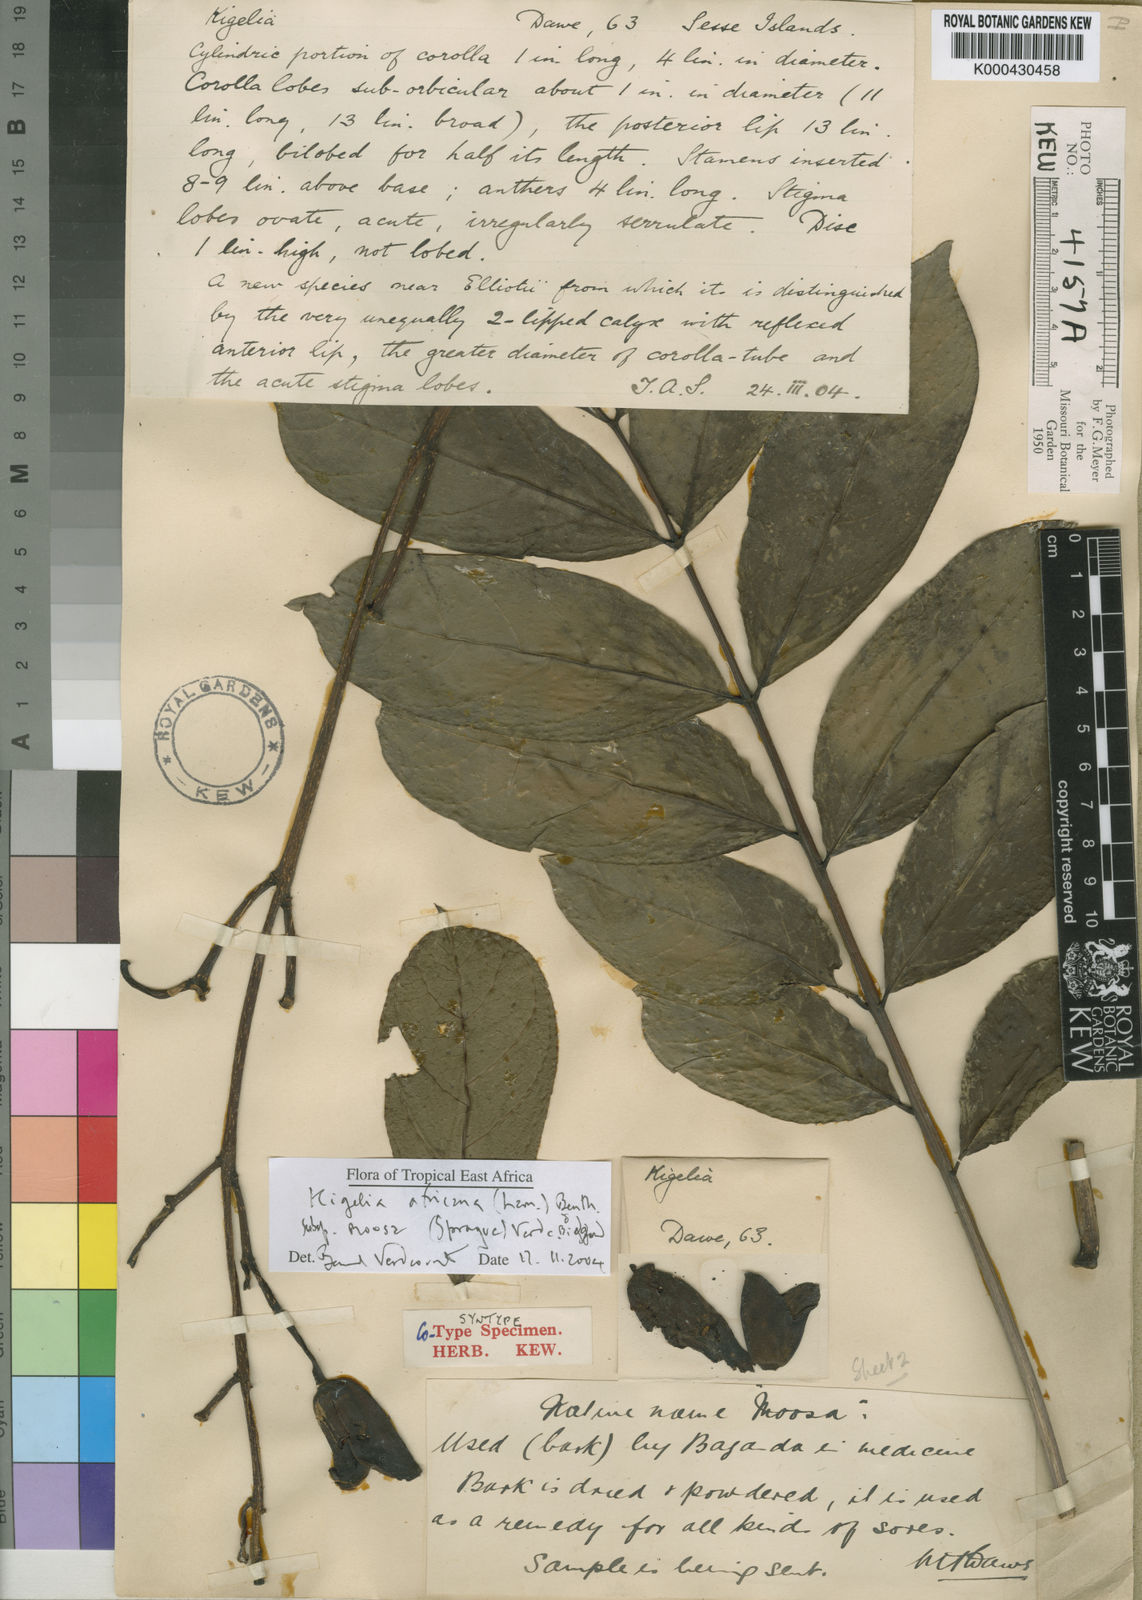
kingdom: Plantae
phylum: Tracheophyta
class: Magnoliopsida
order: Lamiales
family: Bignoniaceae
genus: Kigelia
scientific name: Kigelia africana
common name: Sausage tree
